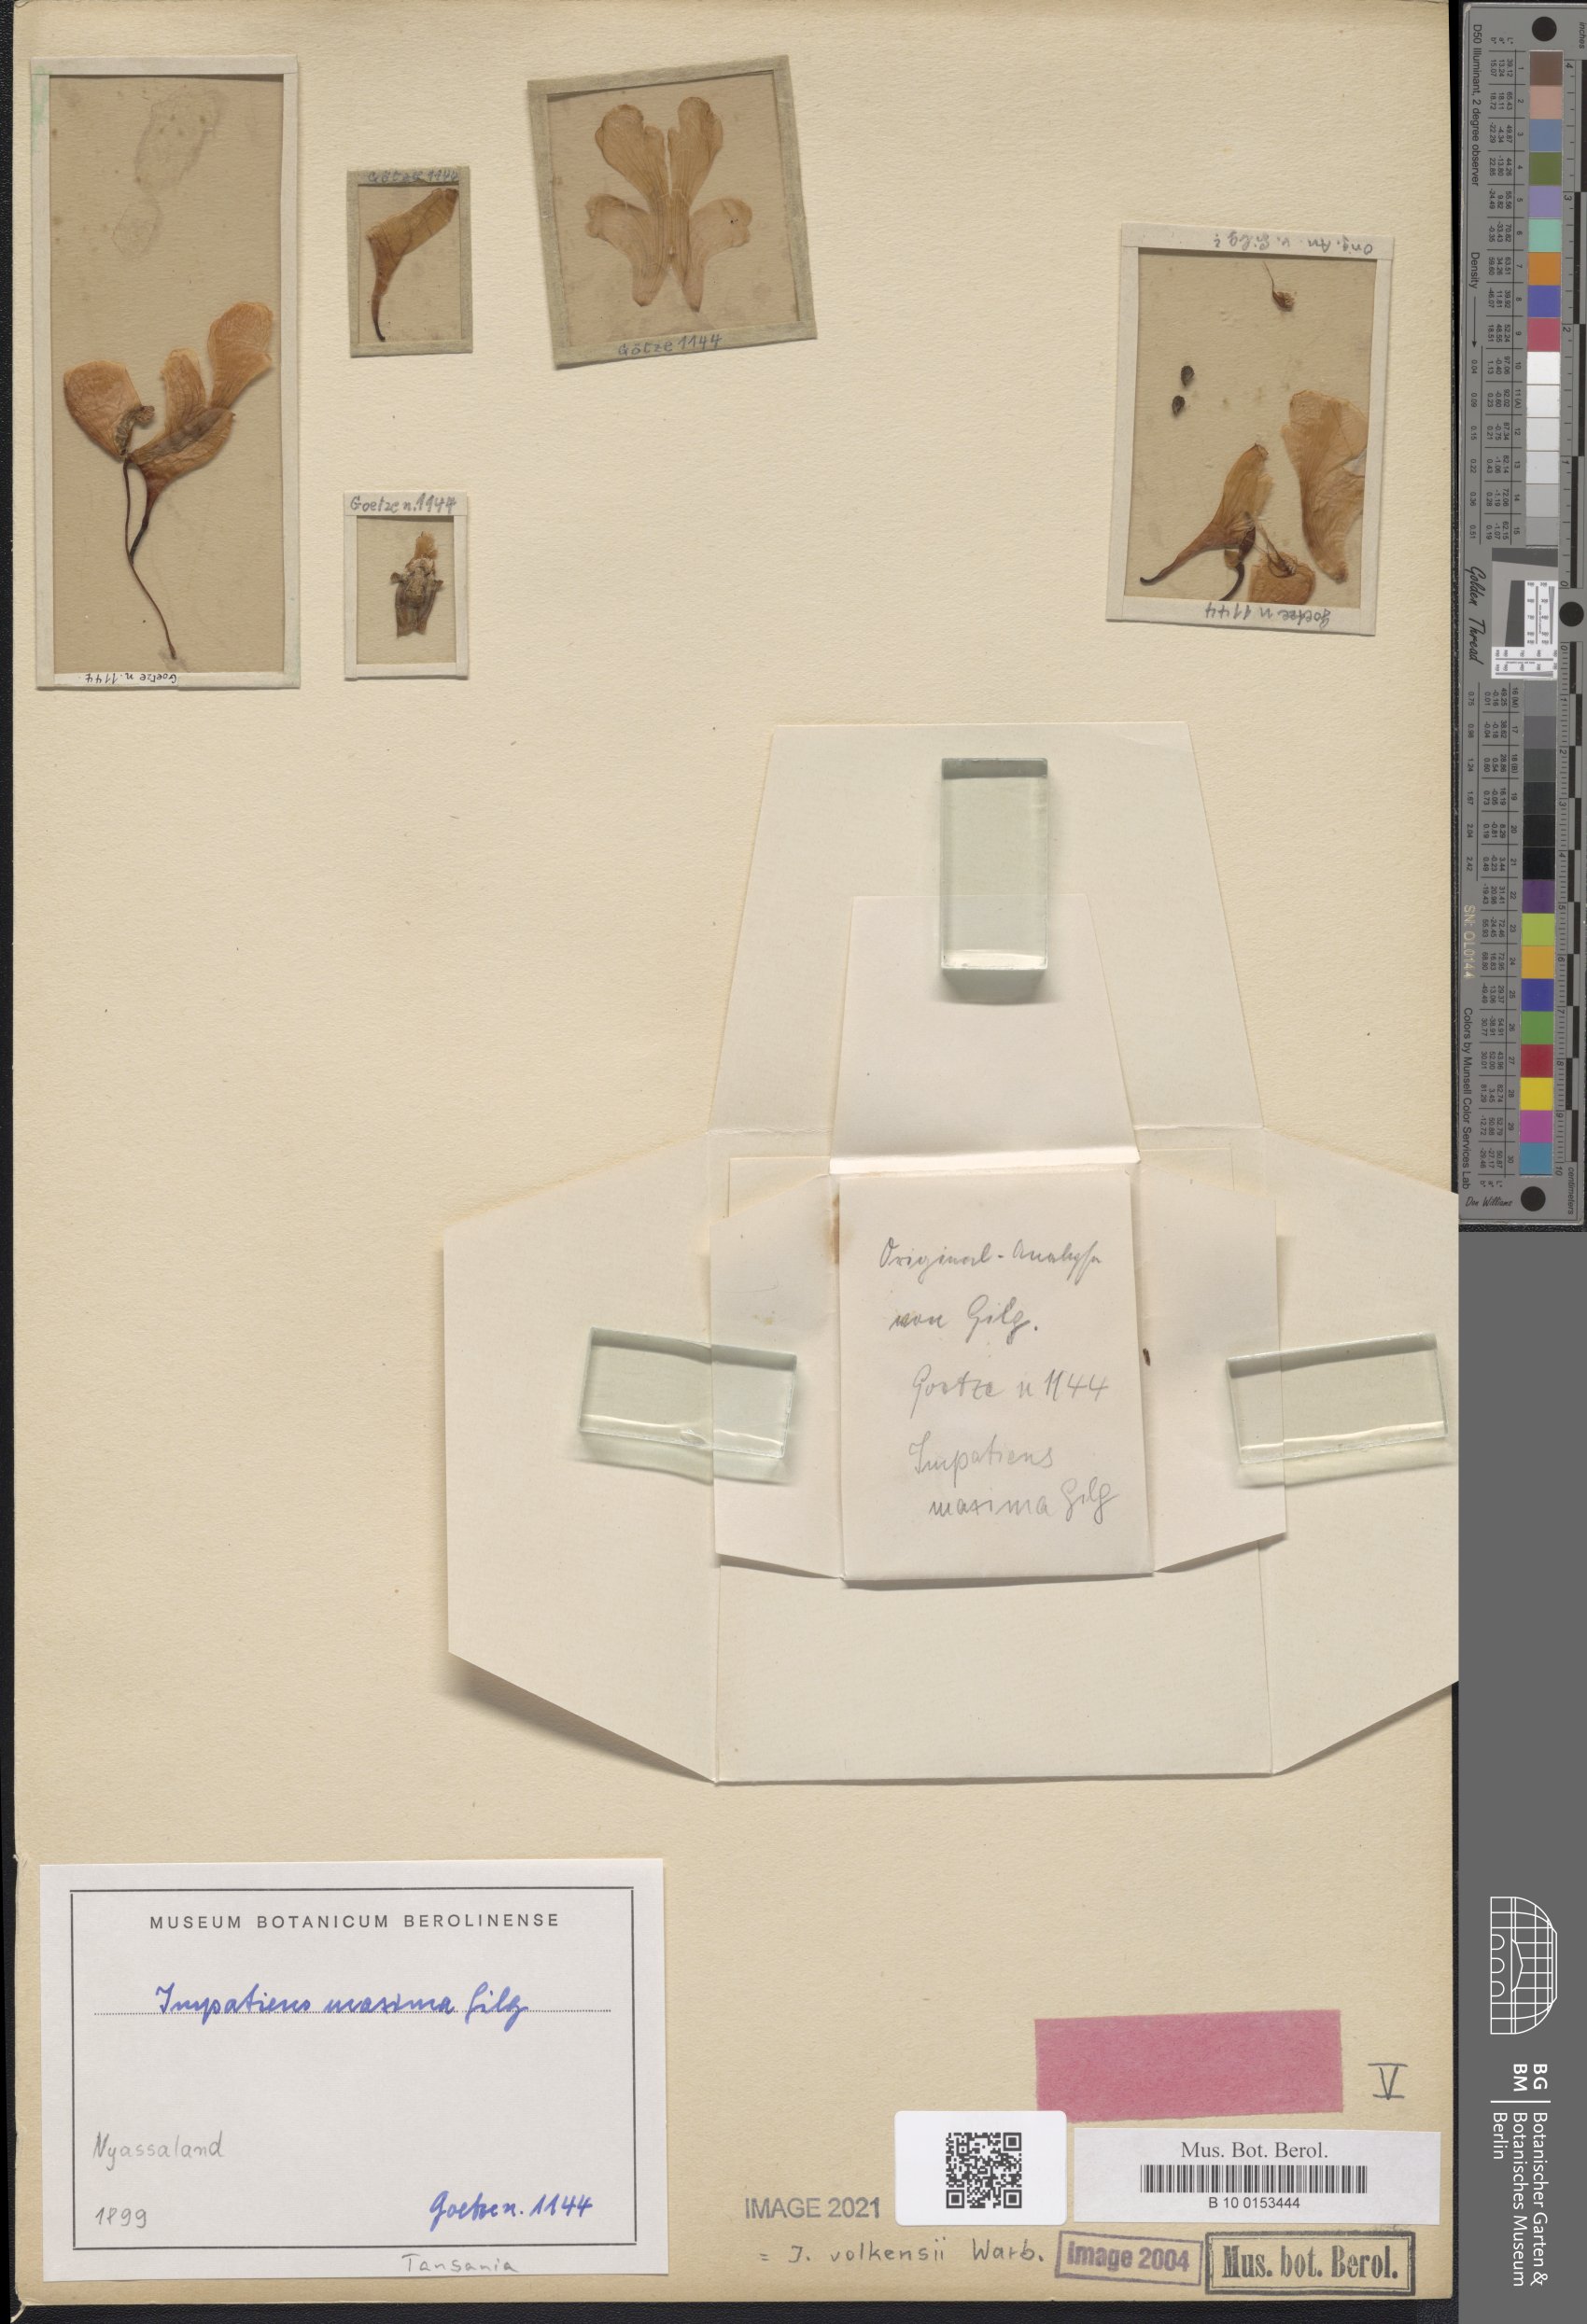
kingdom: Plantae
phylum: Tracheophyta
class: Magnoliopsida
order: Ericales
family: Balsaminaceae
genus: Impatiens
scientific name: Impatiens volkensii
